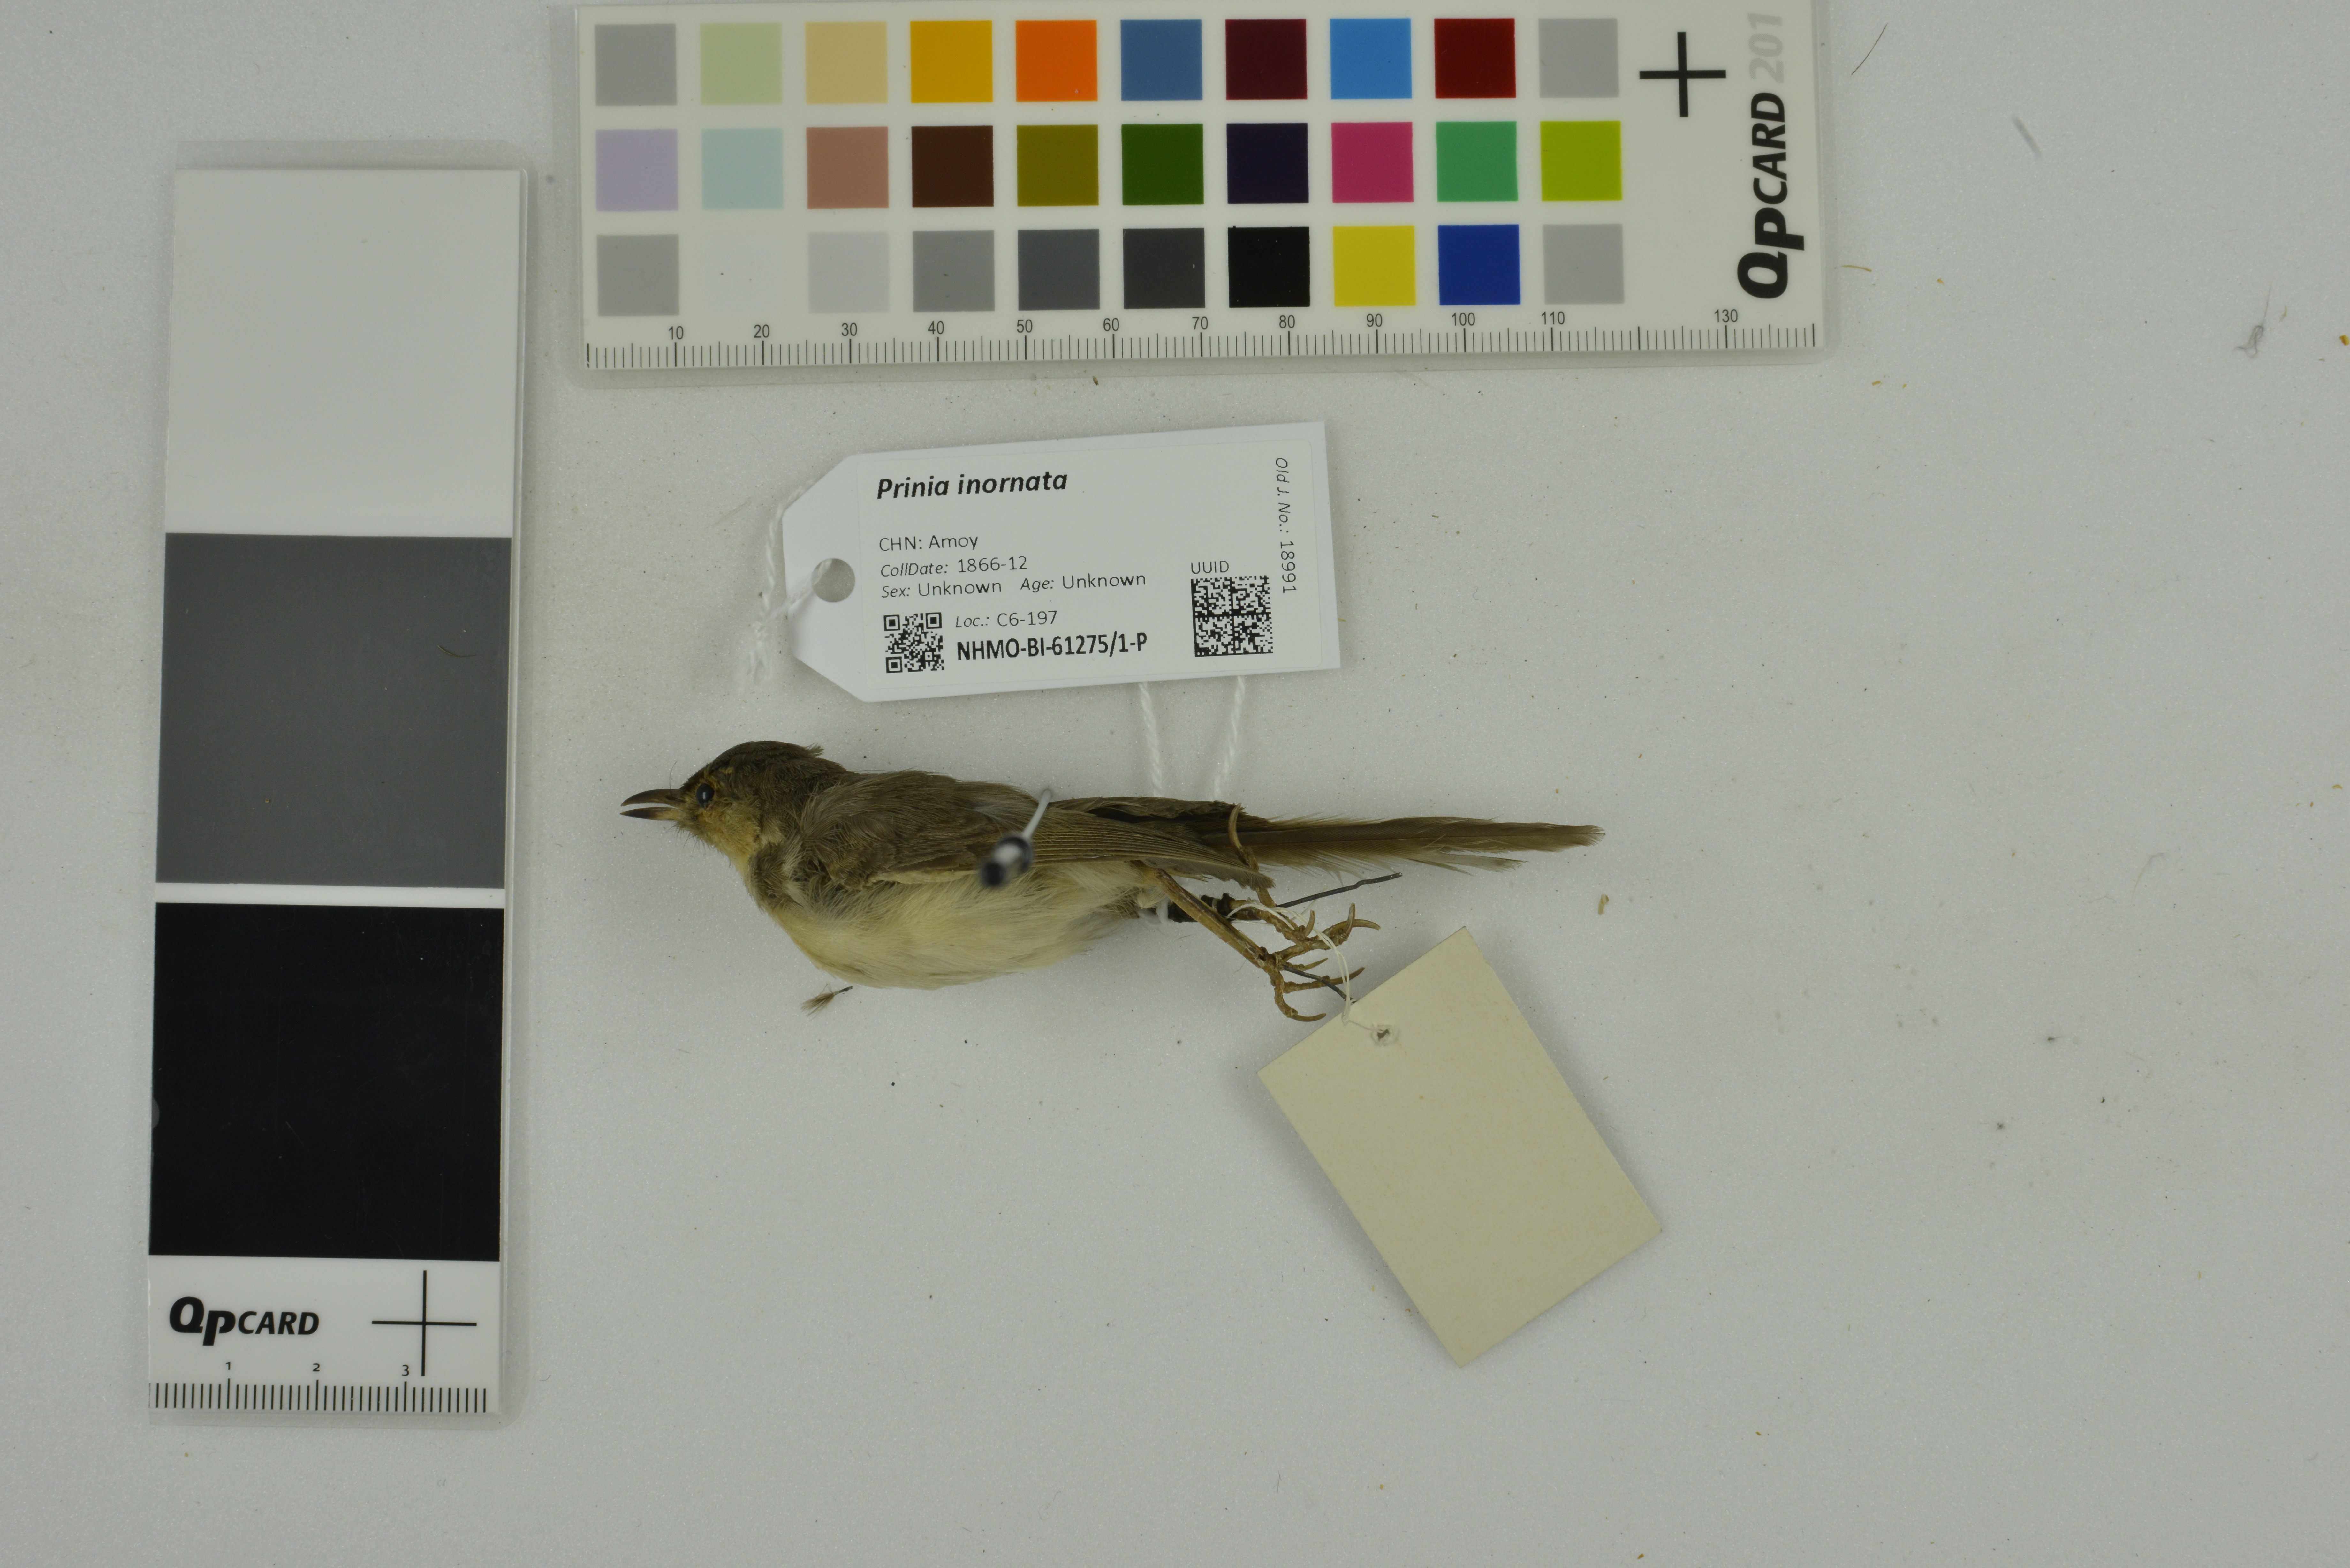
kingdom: Animalia
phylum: Chordata
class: Aves
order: Passeriformes
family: Cisticolidae
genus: Prinia
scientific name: Prinia inornata
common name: Plain prinia
